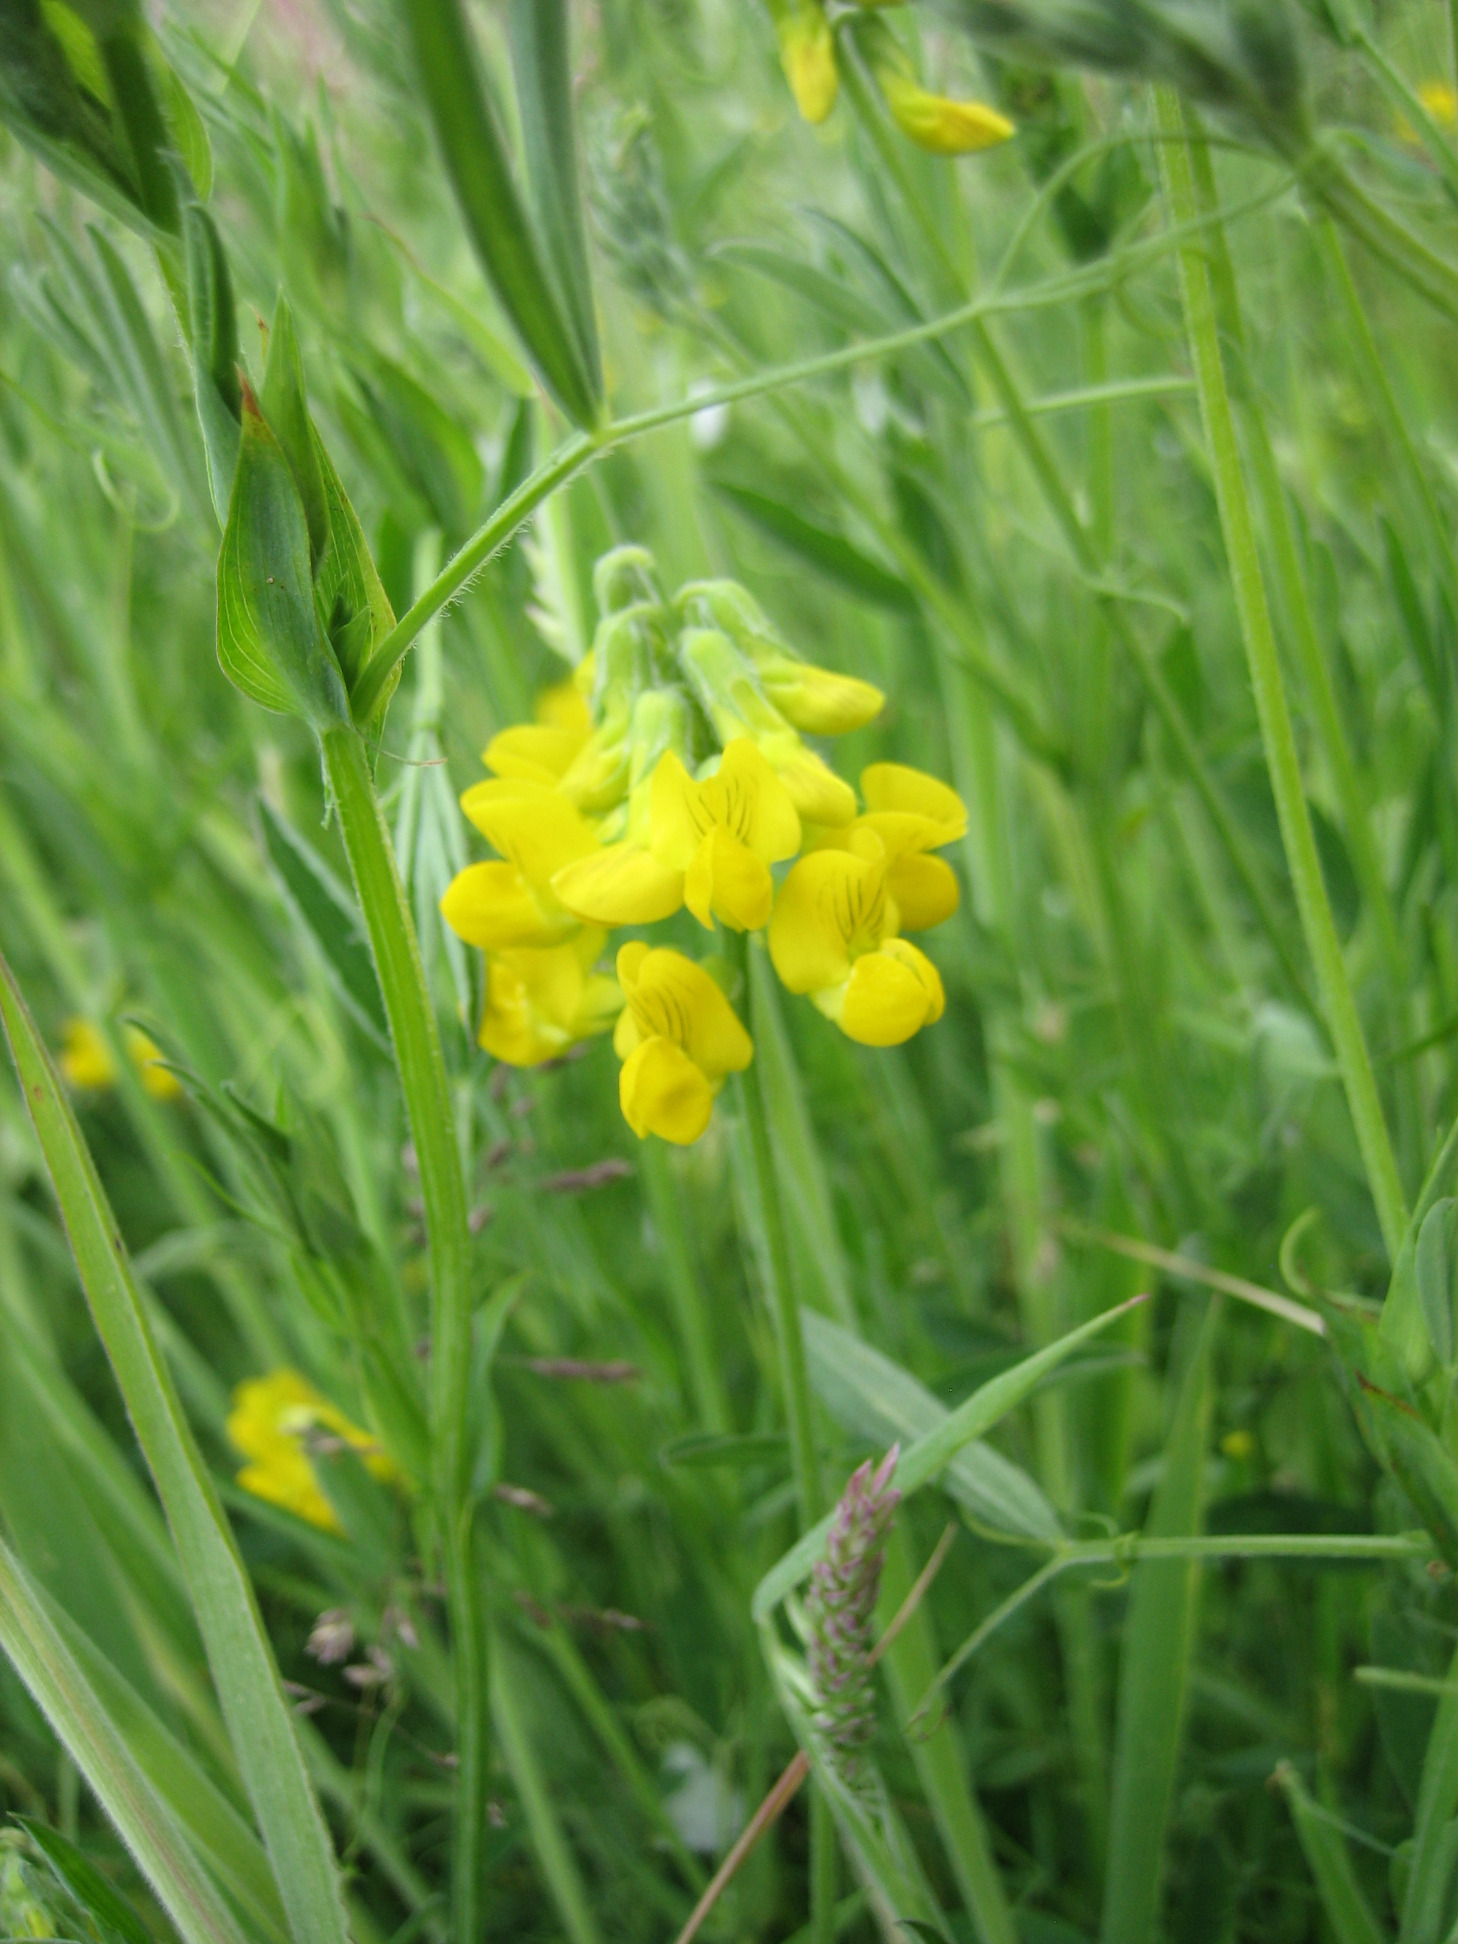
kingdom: Plantae
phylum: Tracheophyta
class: Magnoliopsida
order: Fabales
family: Fabaceae
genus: Lathyrus
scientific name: Lathyrus pratensis
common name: Gul fladbælg
